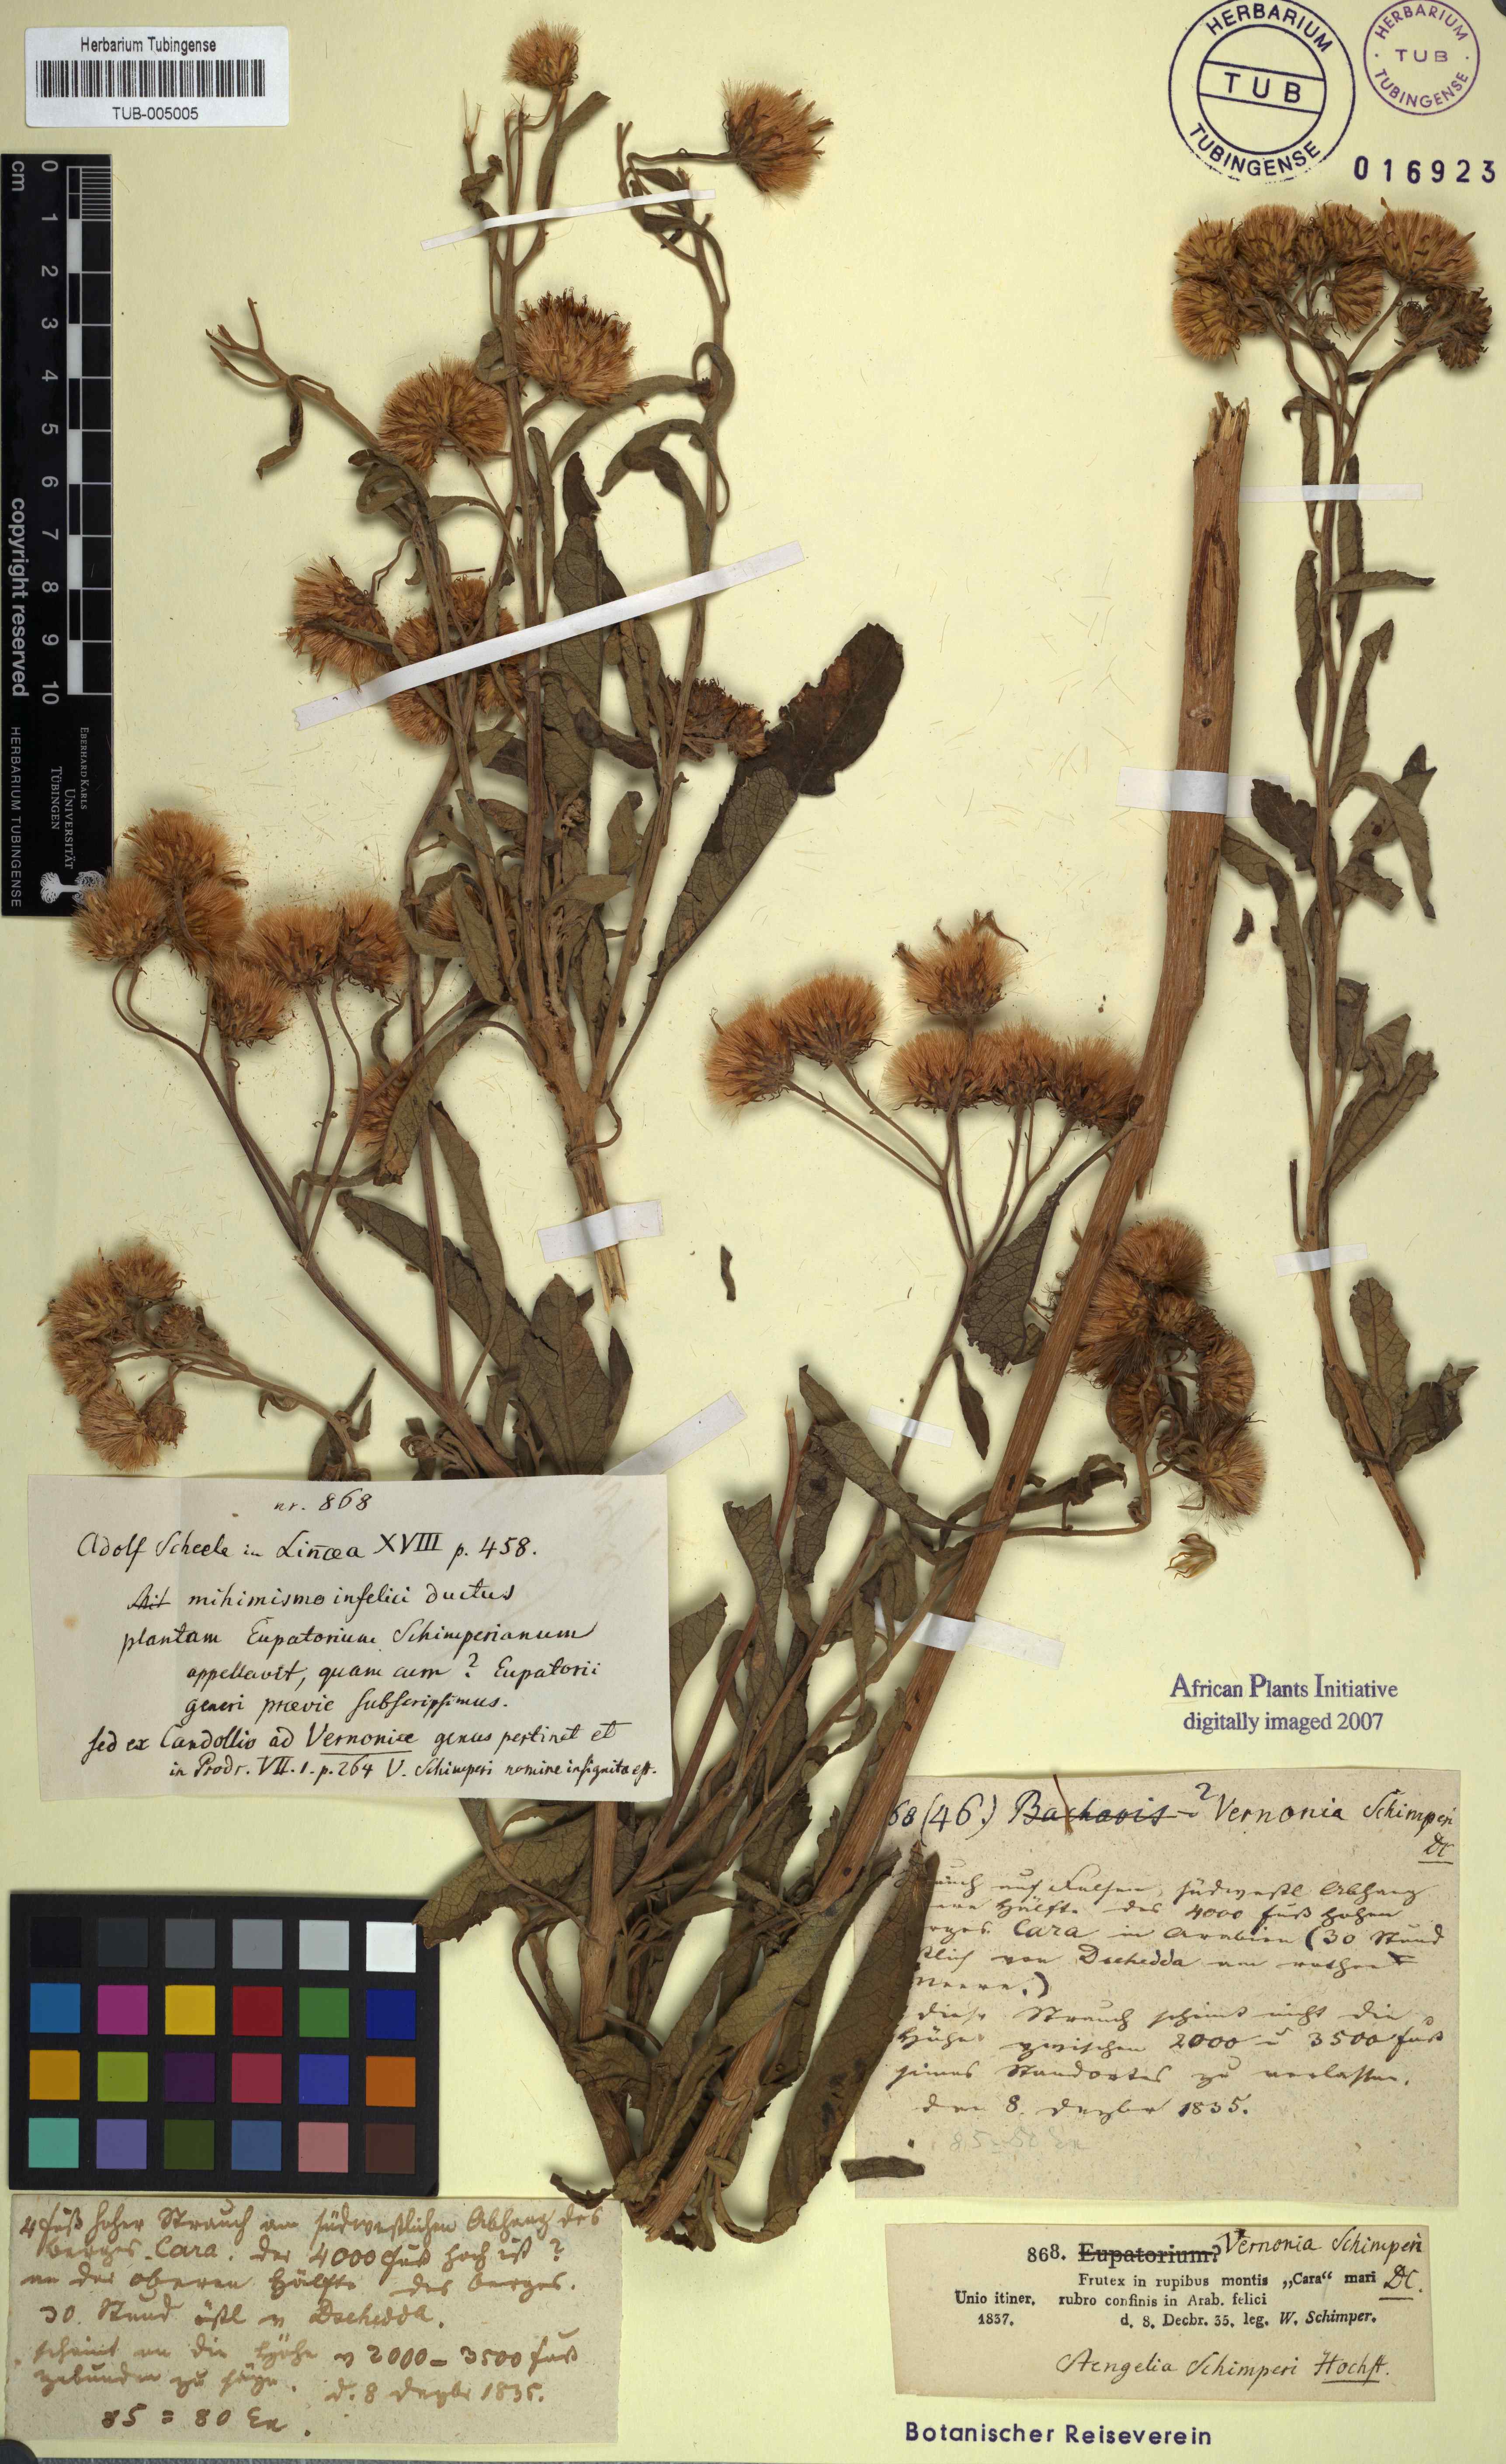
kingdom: Plantae
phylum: Tracheophyta
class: Magnoliopsida
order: Asterales
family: Asteraceae
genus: Baccharoides
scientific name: Baccharoides schimperi
